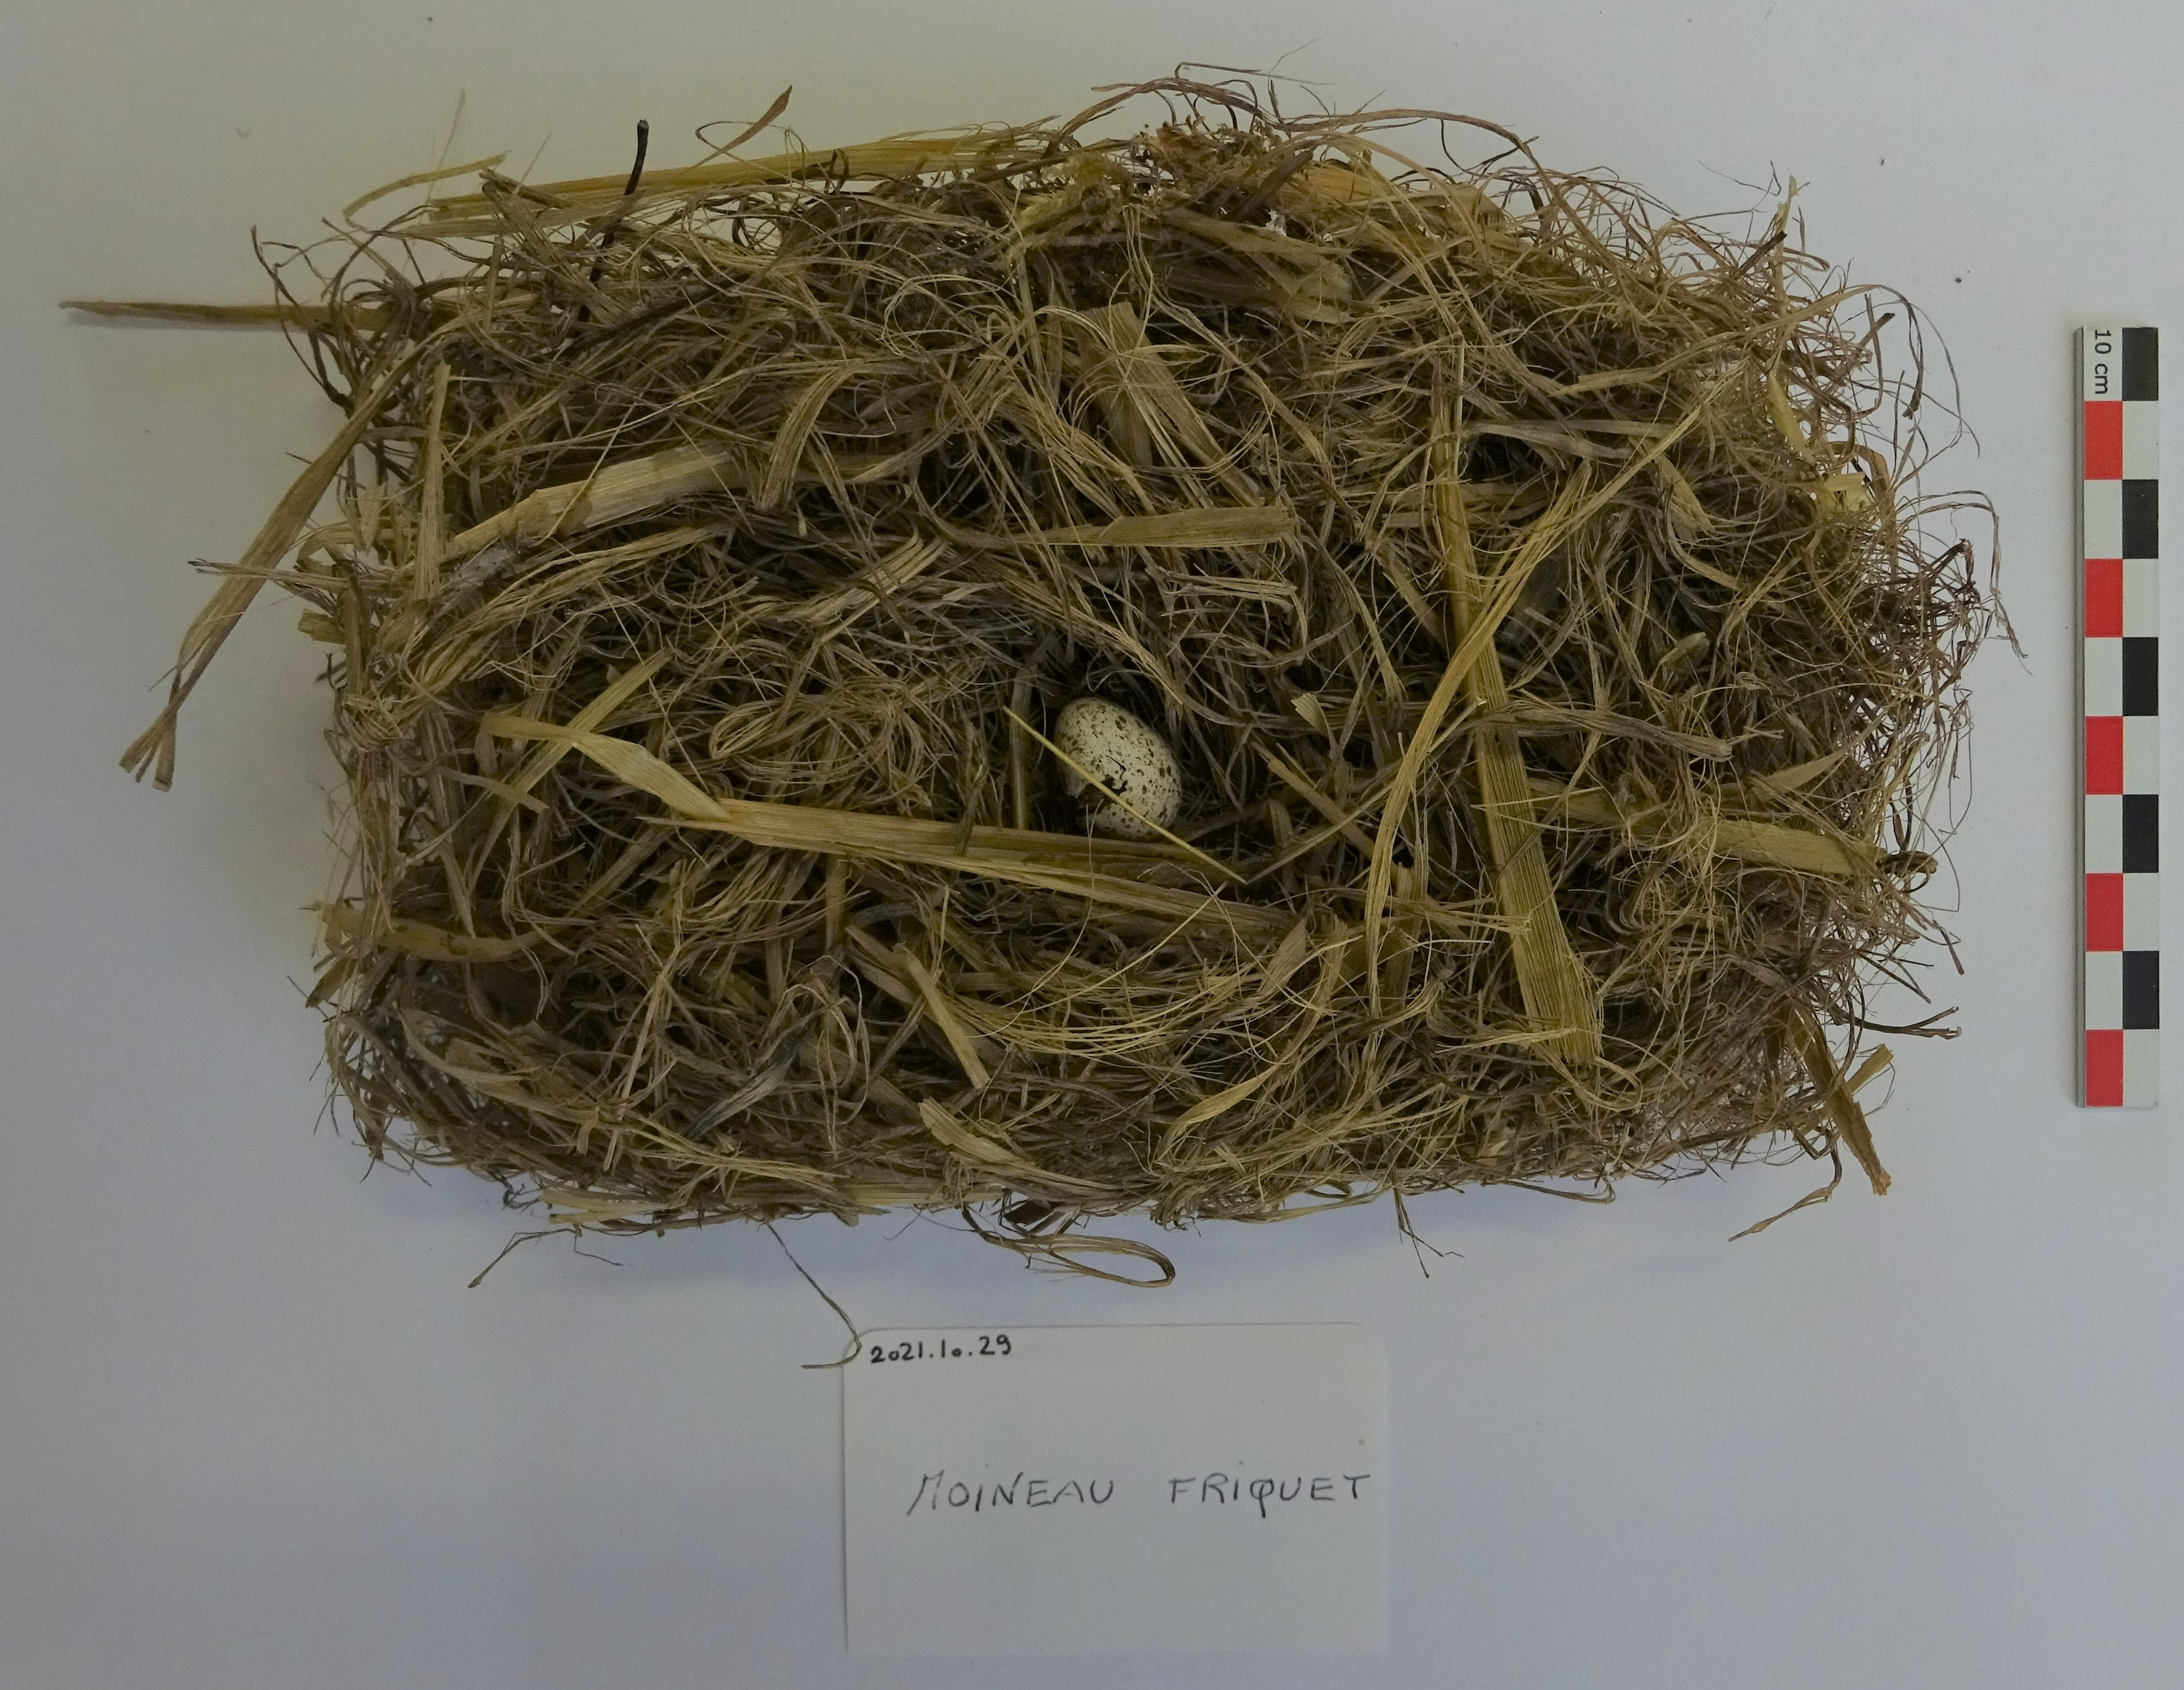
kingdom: Animalia
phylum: Chordata
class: Aves
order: Passeriformes
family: Passeridae
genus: Passer
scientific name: Passer montanus
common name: Eurasian tree sparrow
